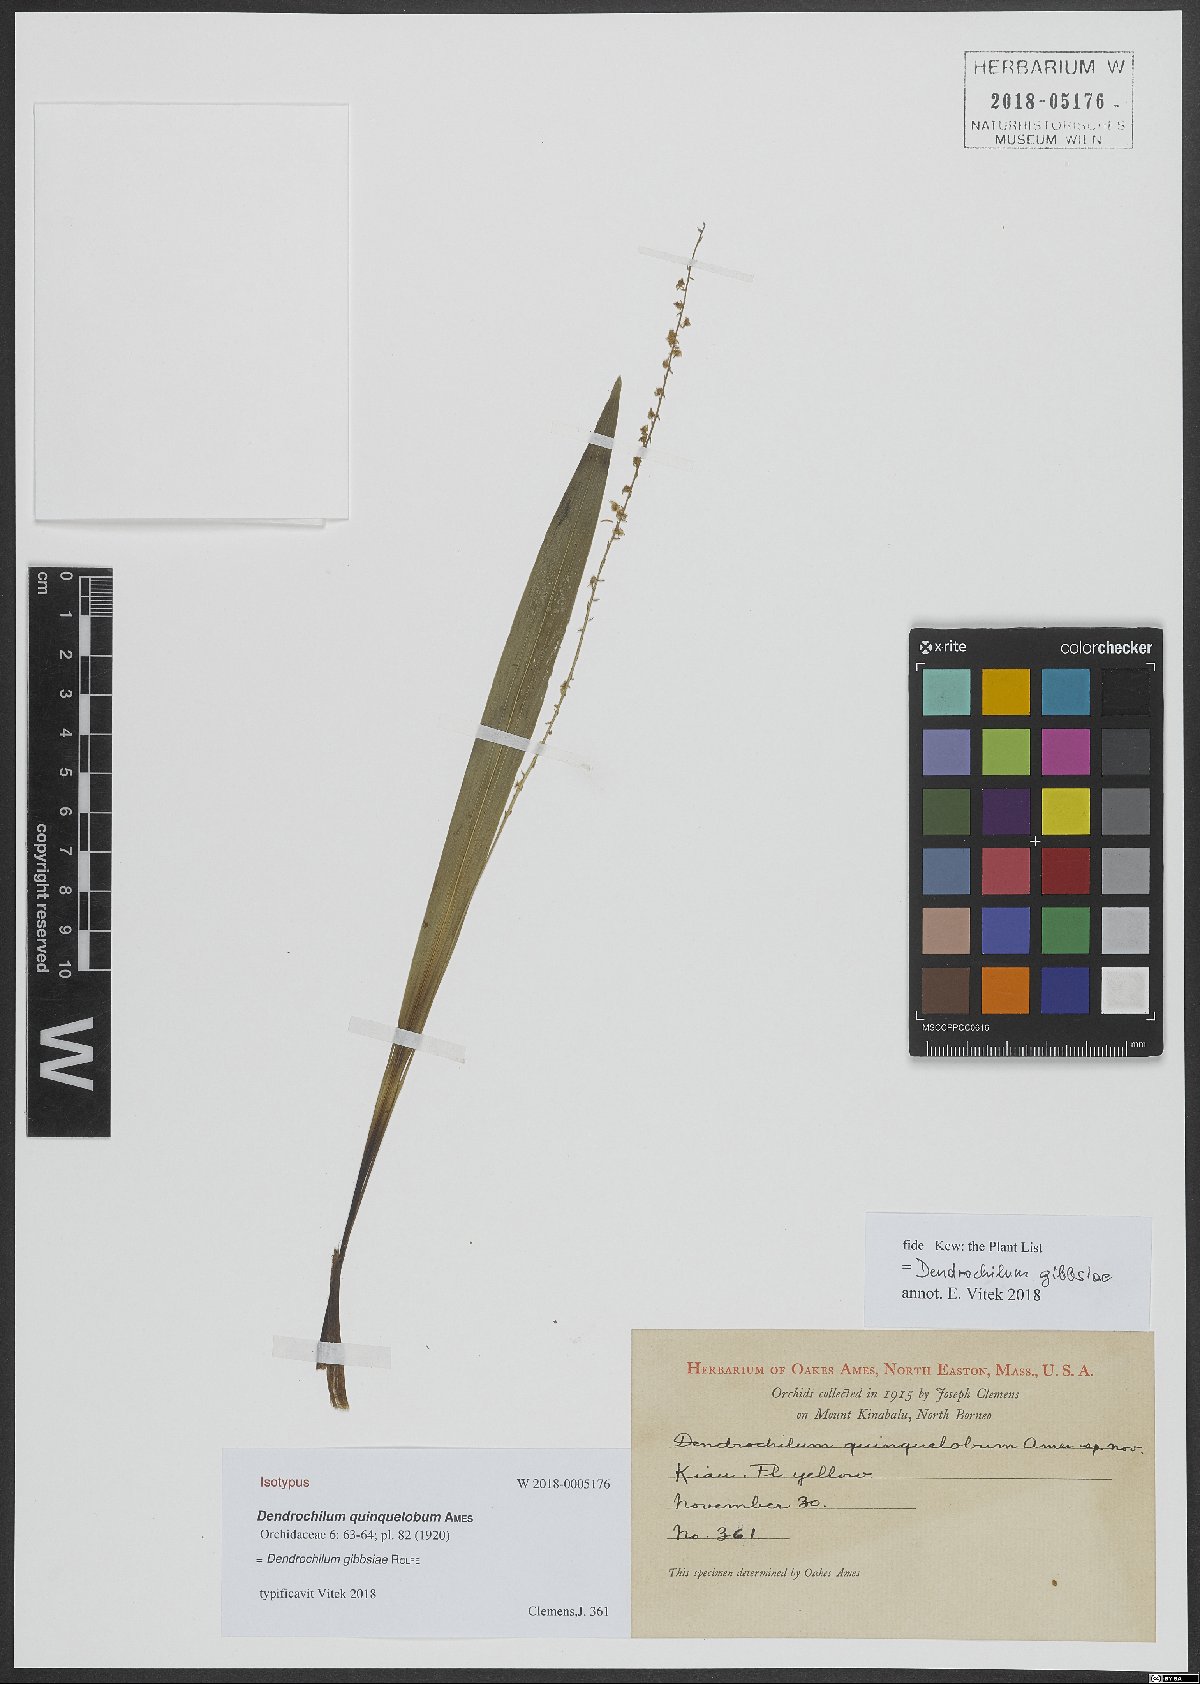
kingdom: Plantae
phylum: Tracheophyta
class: Liliopsida
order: Asparagales
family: Orchidaceae
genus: Coelogyne
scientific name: Coelogyne gibbsiae
